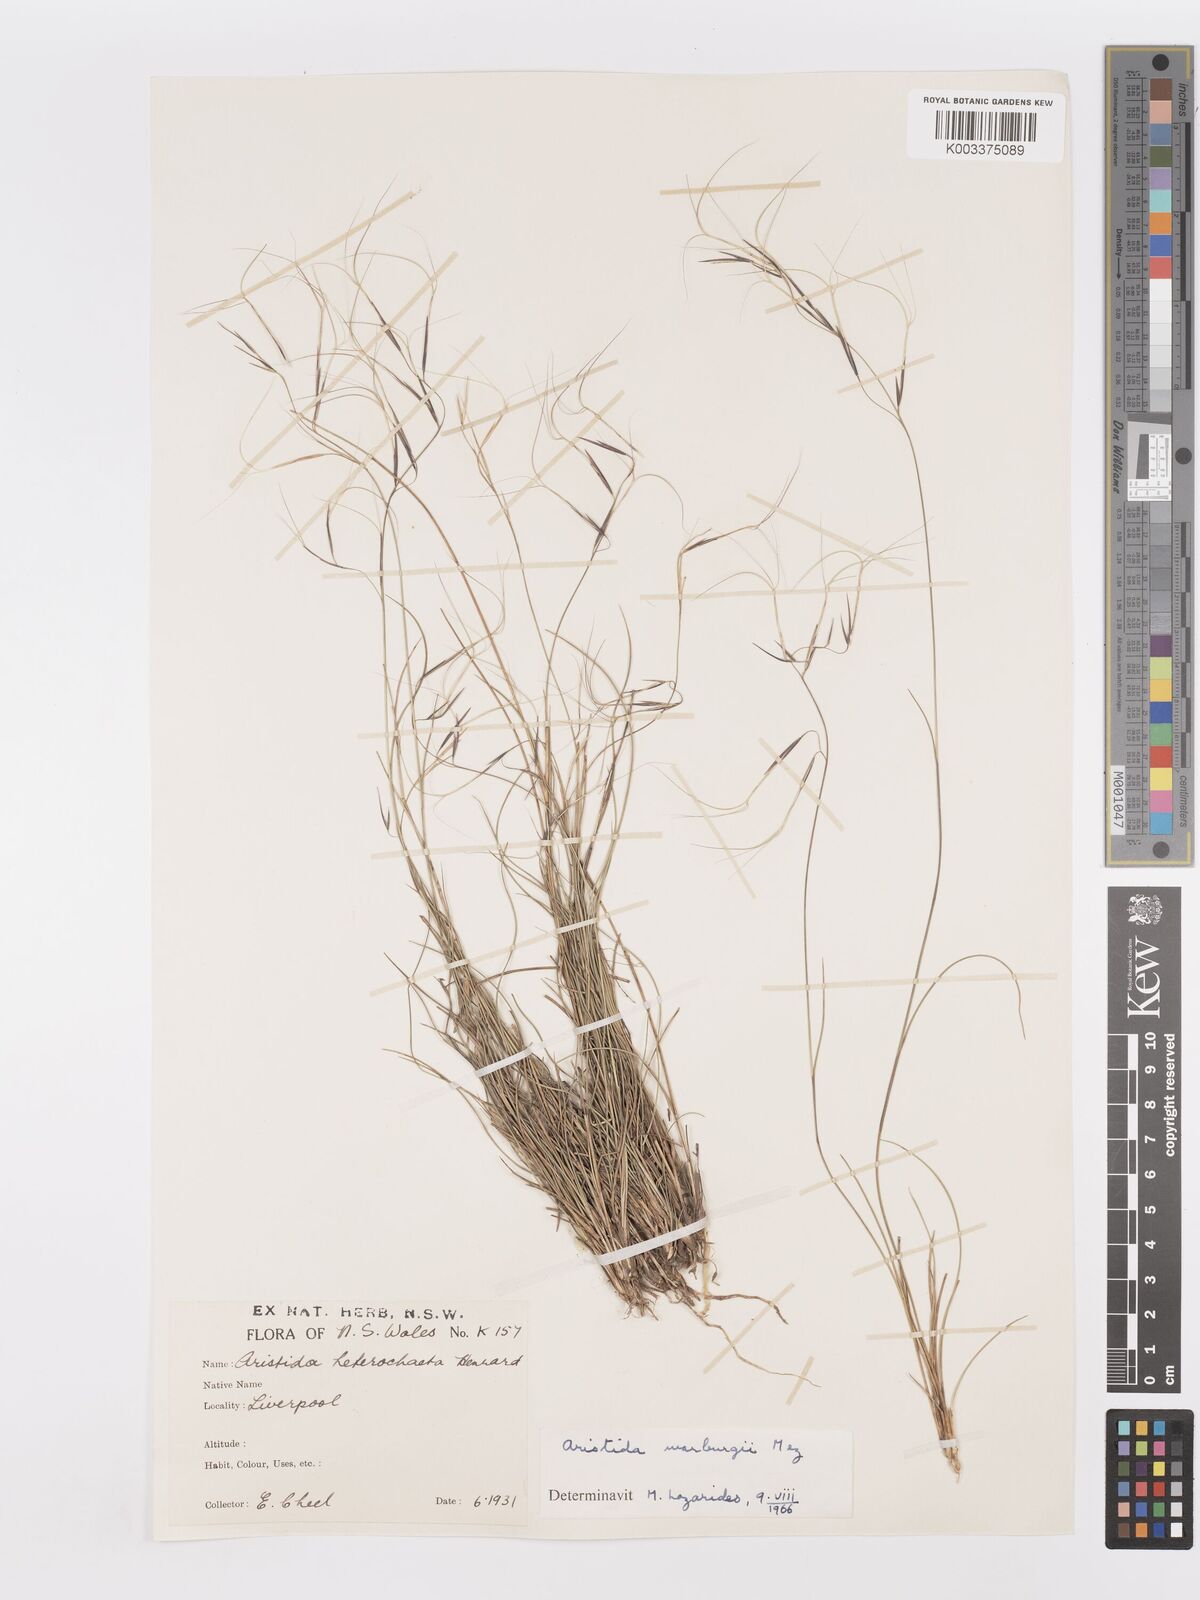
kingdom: Plantae
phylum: Tracheophyta
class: Liliopsida
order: Poales
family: Poaceae
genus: Aristida
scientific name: Aristida warburgii
